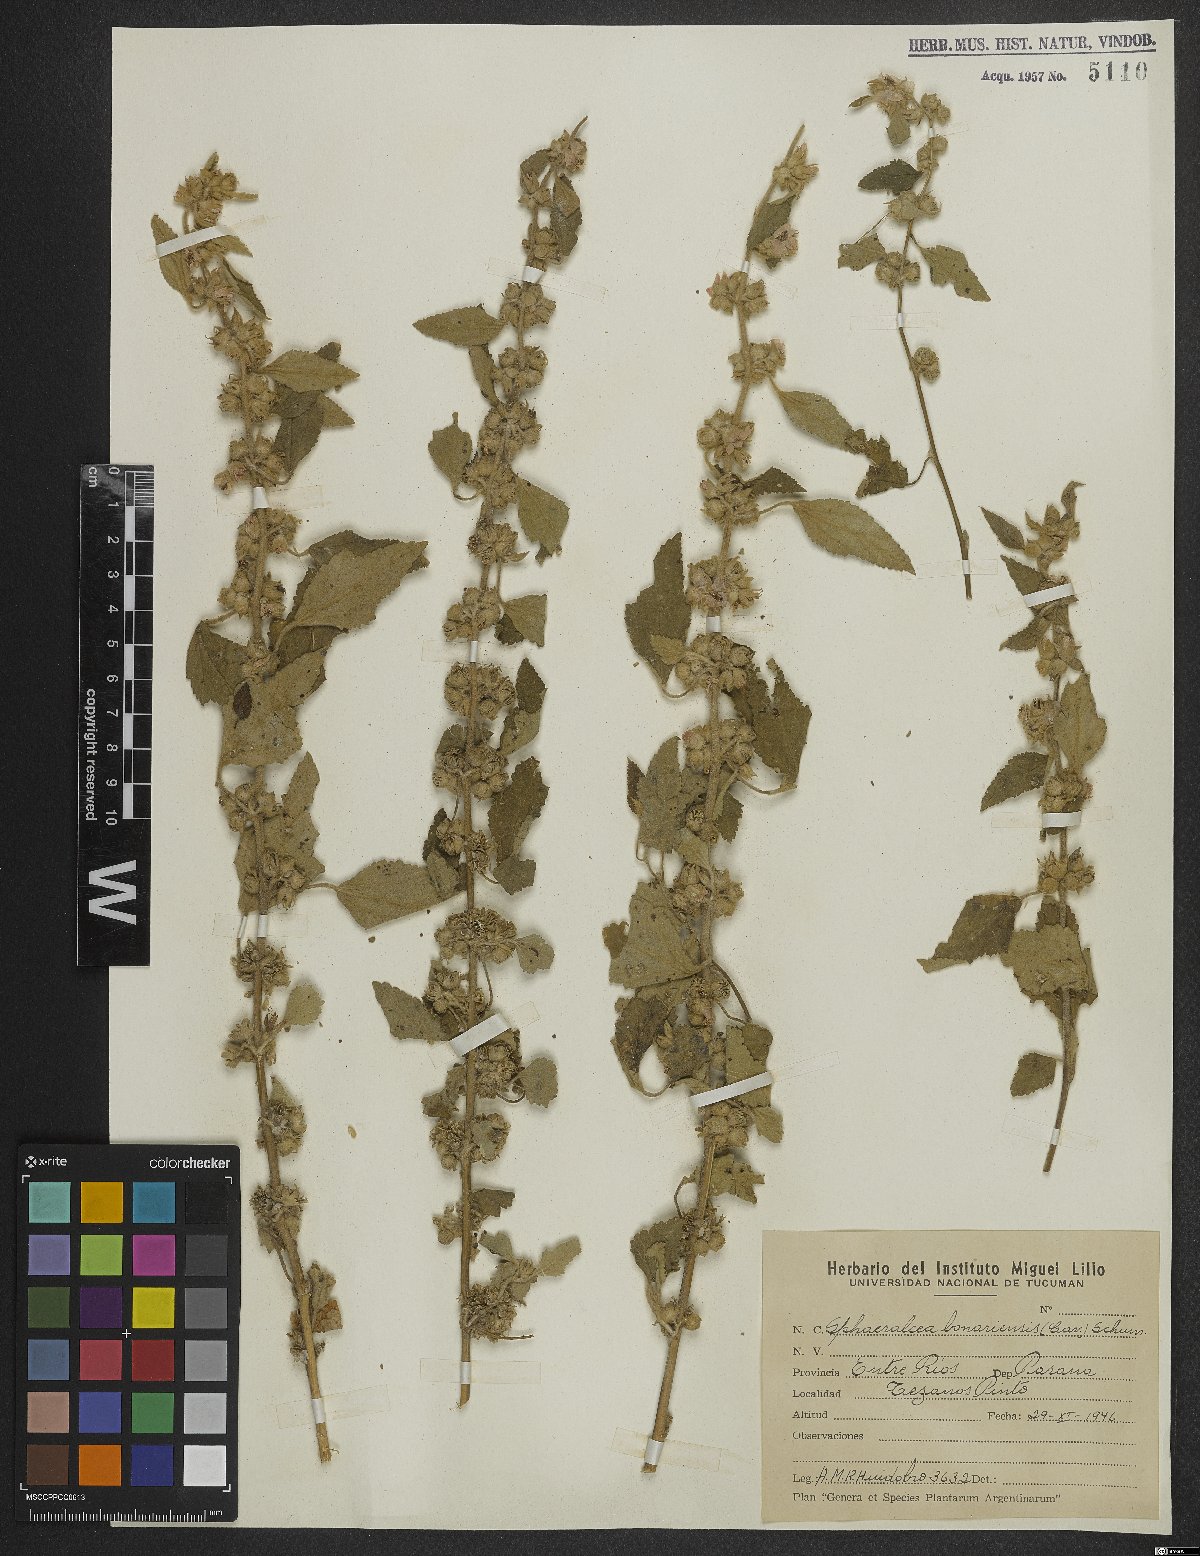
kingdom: Plantae
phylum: Tracheophyta
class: Magnoliopsida
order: Malvales
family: Malvaceae
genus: Sphaeralcea
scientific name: Sphaeralcea bonariensis
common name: Latin globemallow
